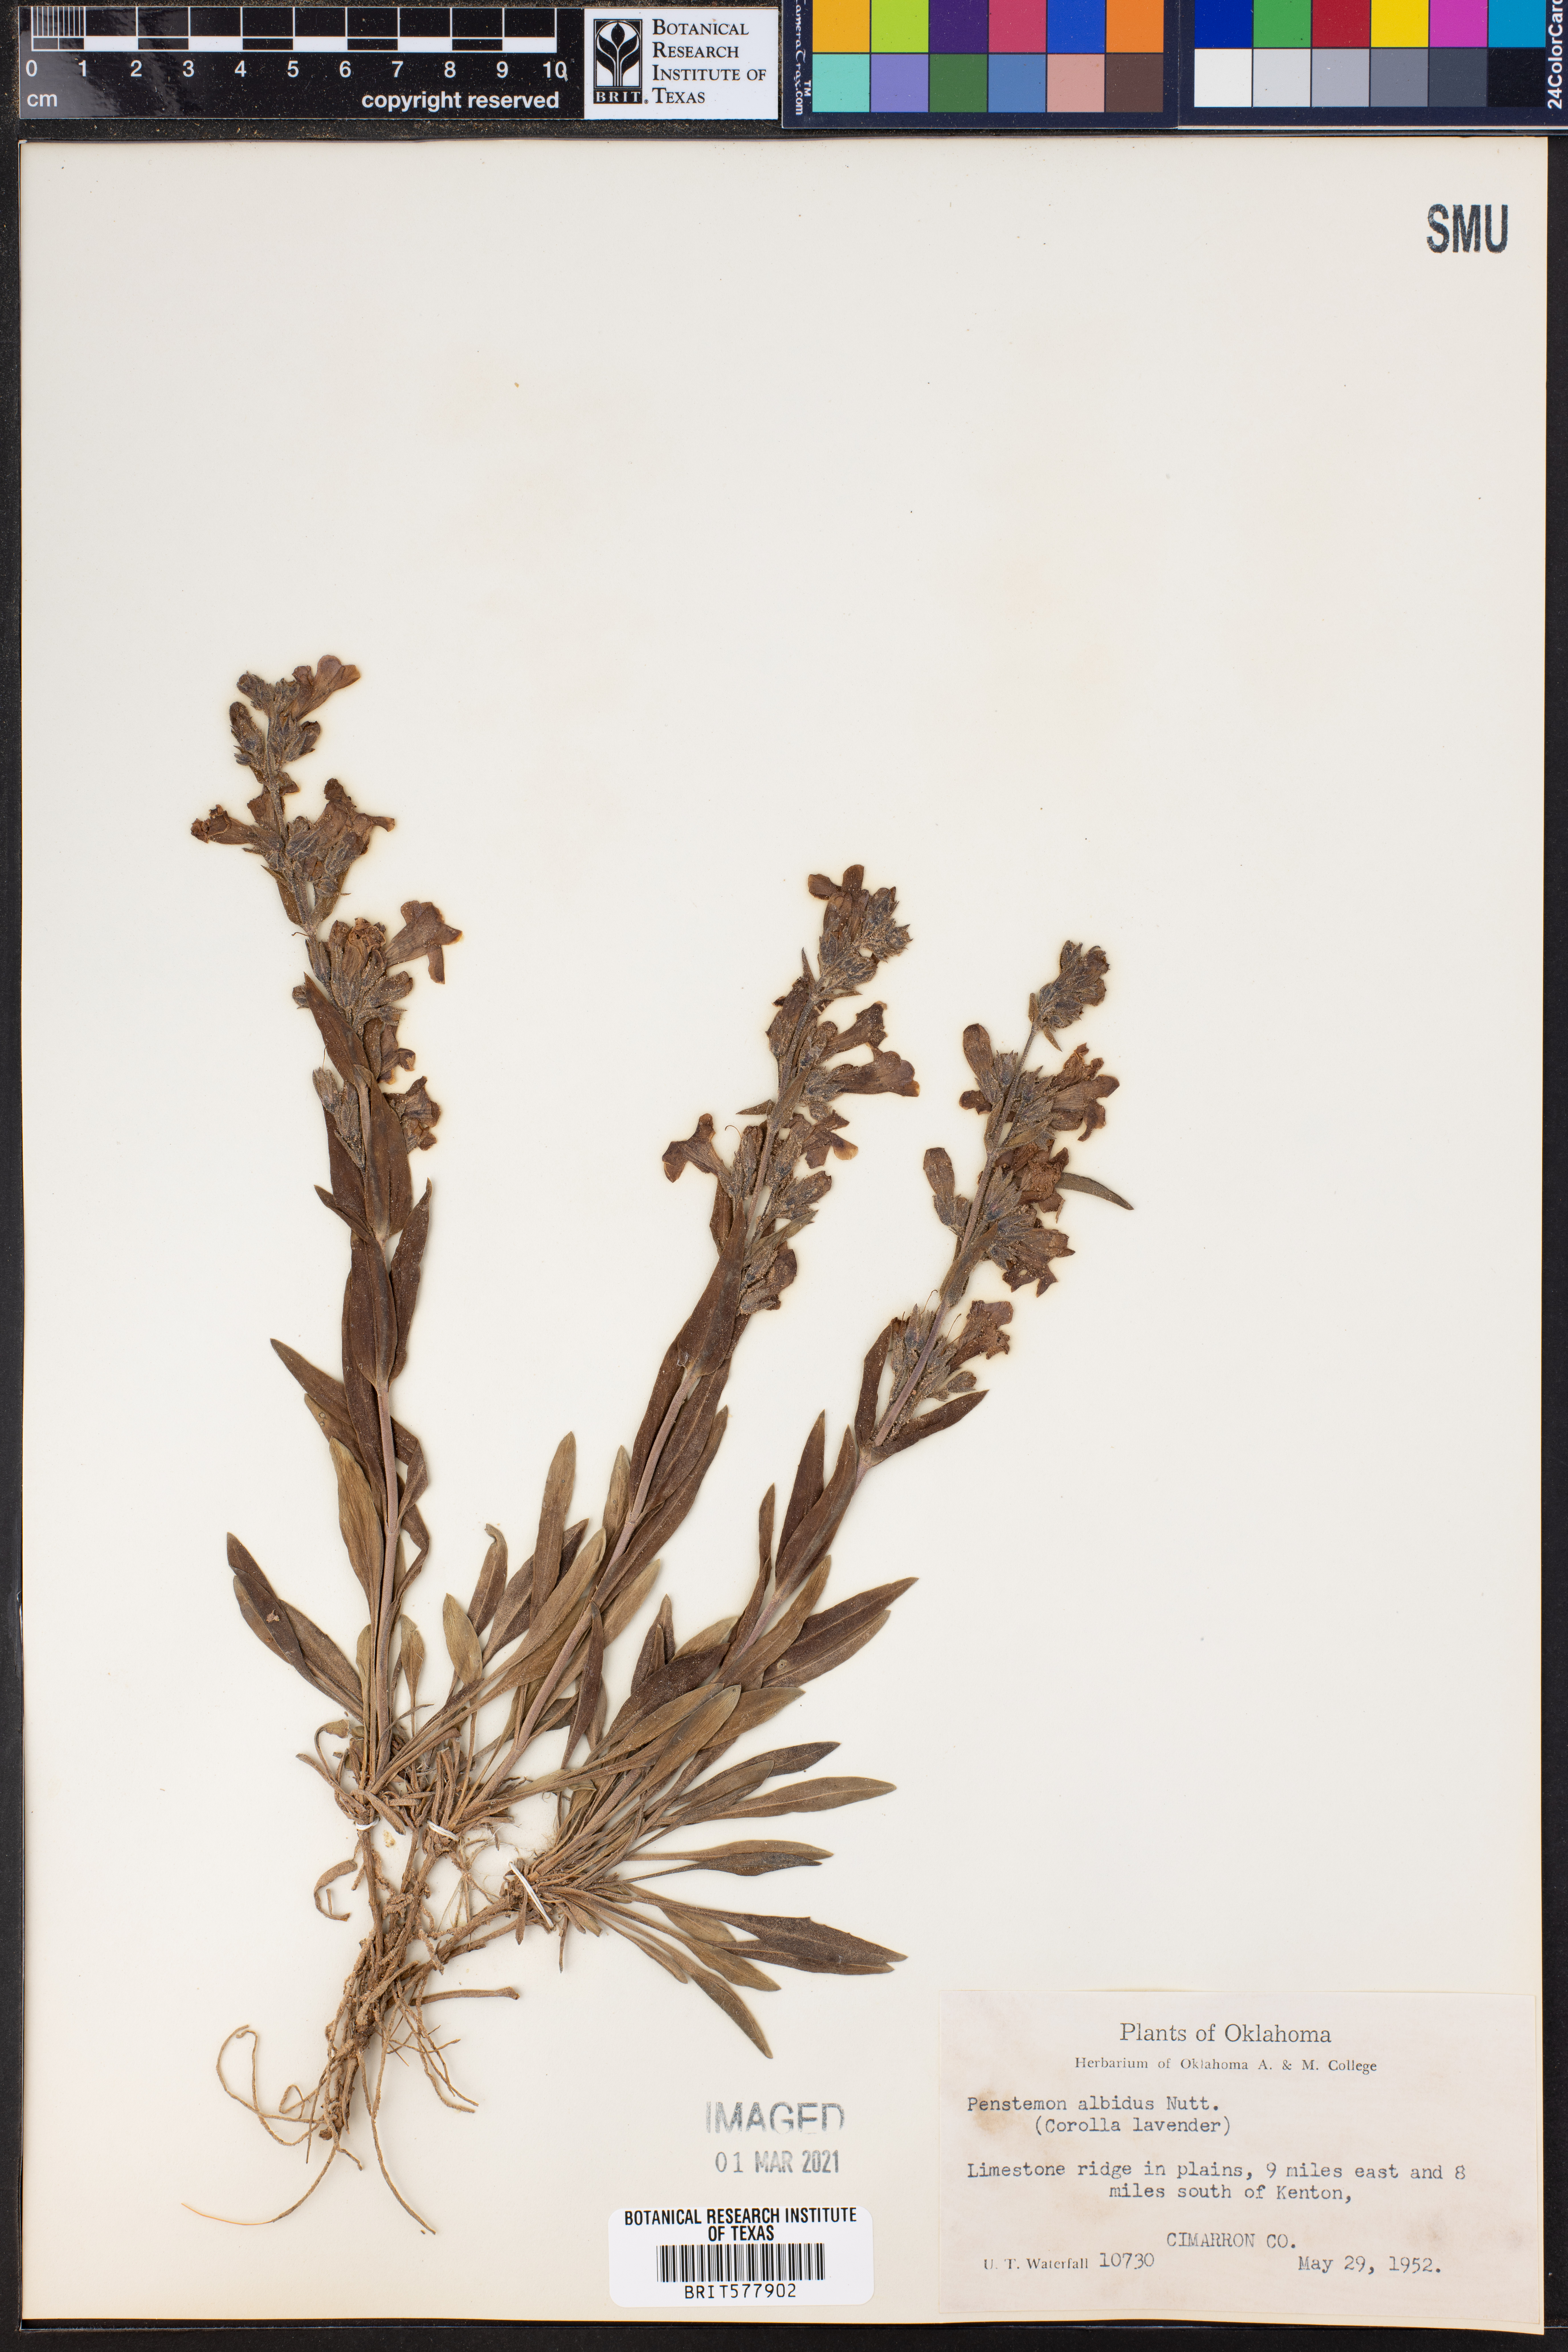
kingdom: Plantae
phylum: Tracheophyta
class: Magnoliopsida
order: Lamiales
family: Plantaginaceae
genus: Penstemon
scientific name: Penstemon albidus
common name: White beardtongue
